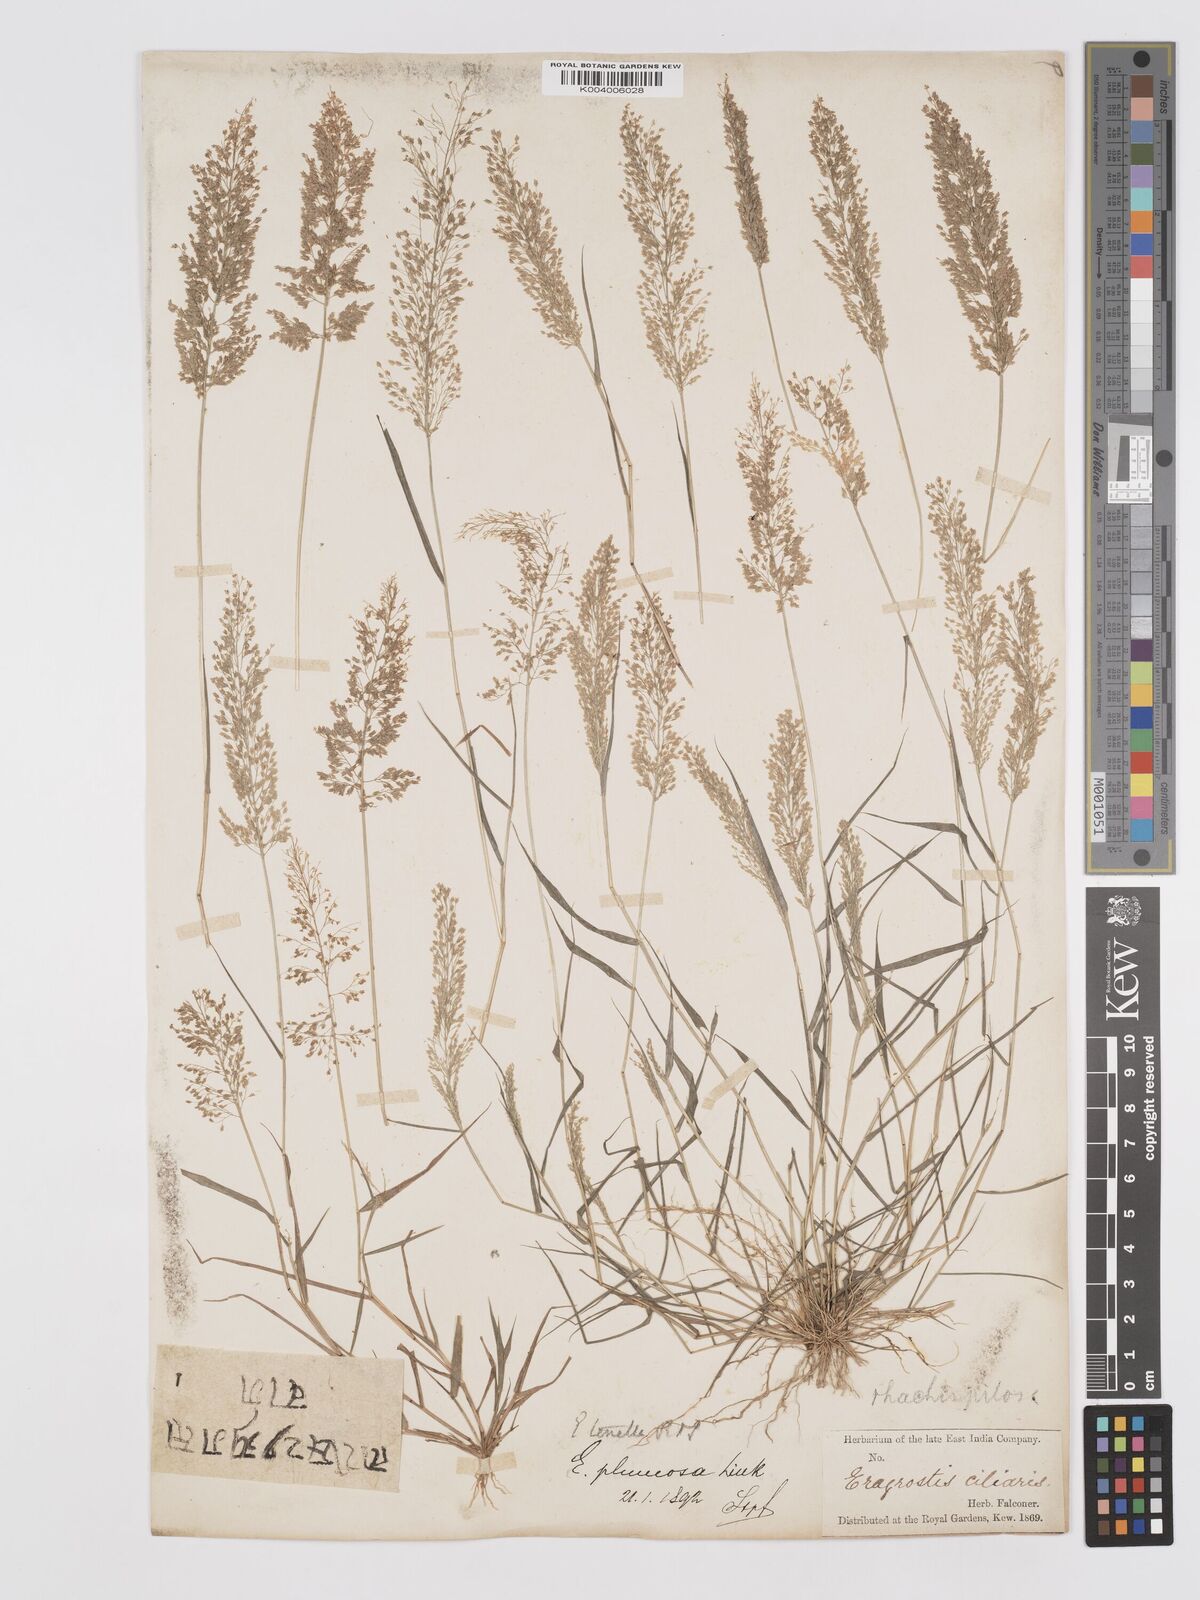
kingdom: Plantae
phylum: Tracheophyta
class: Liliopsida
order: Poales
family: Poaceae
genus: Eragrostis
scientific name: Eragrostis tenella
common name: Japanese lovegrass
